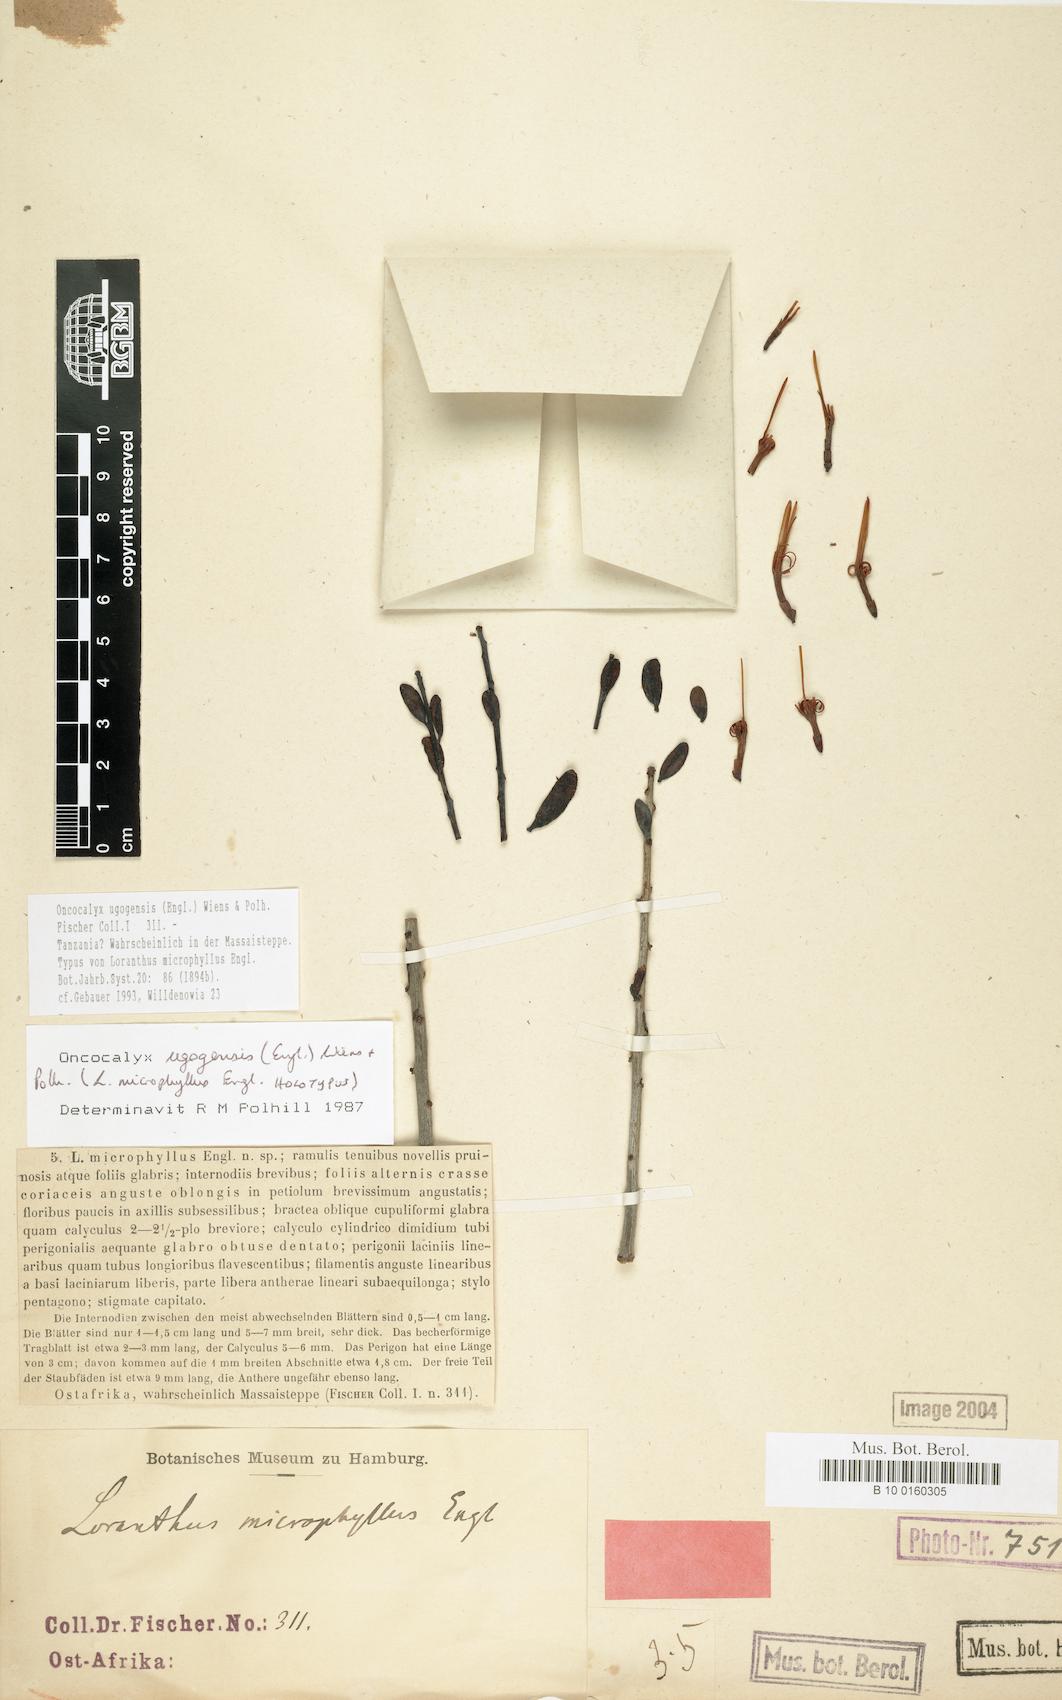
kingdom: Plantae
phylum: Tracheophyta
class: Magnoliopsida
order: Santalales
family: Loranthaceae
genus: Oncocalyx
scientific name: Oncocalyx ugogensis
